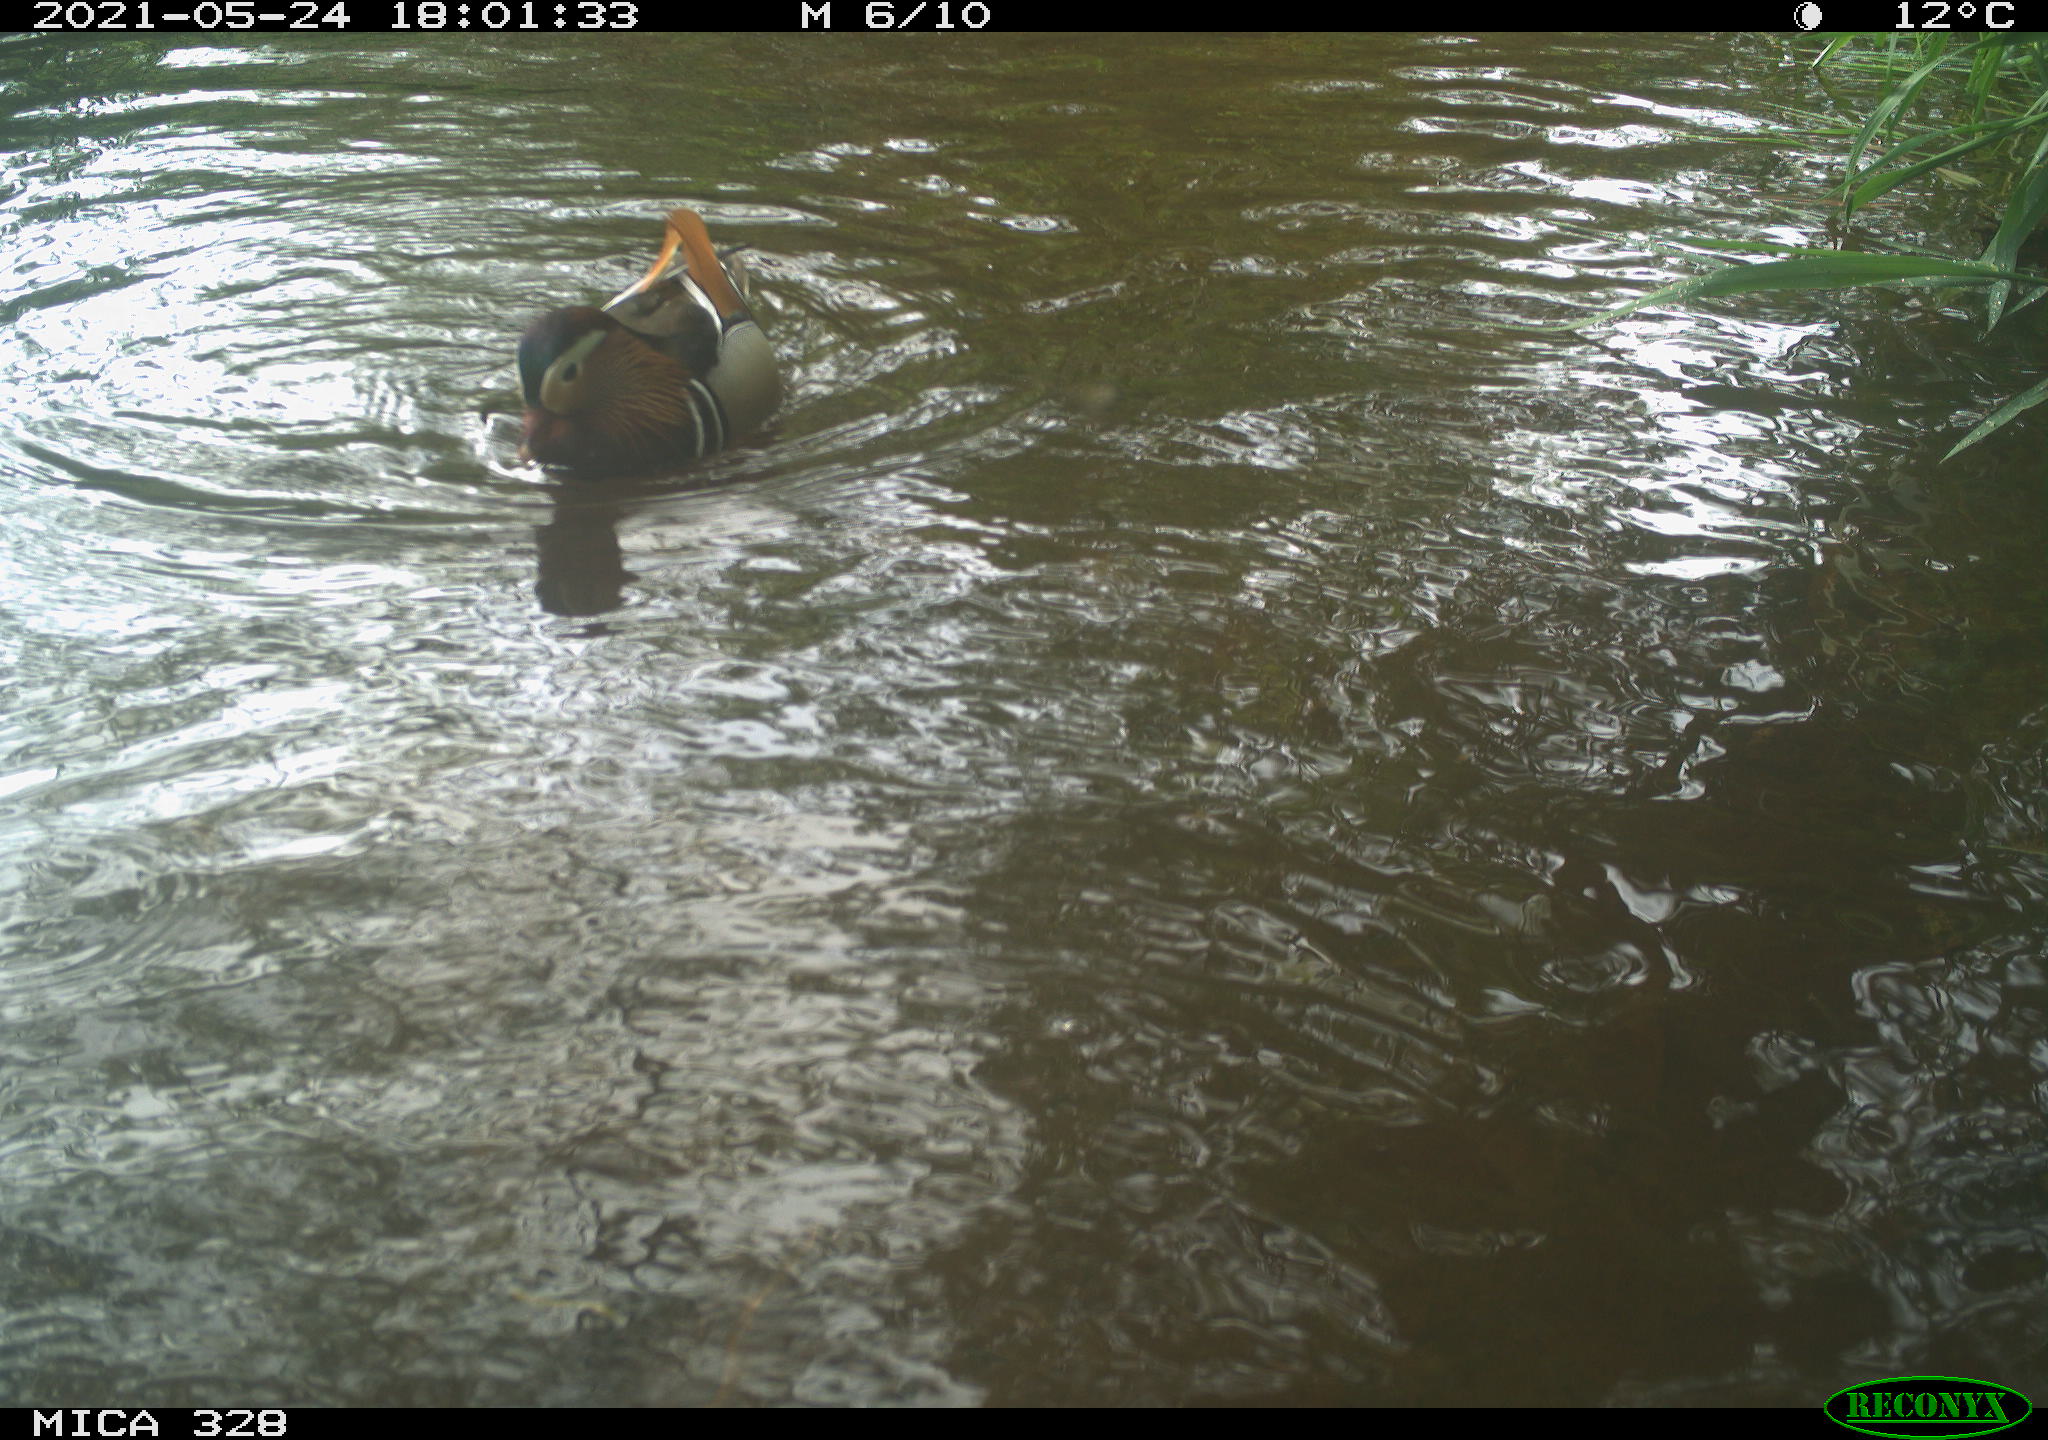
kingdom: Animalia
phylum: Chordata
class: Aves
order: Anseriformes
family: Anatidae
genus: Aix
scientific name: Aix galericulata
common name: Mandarin duck
